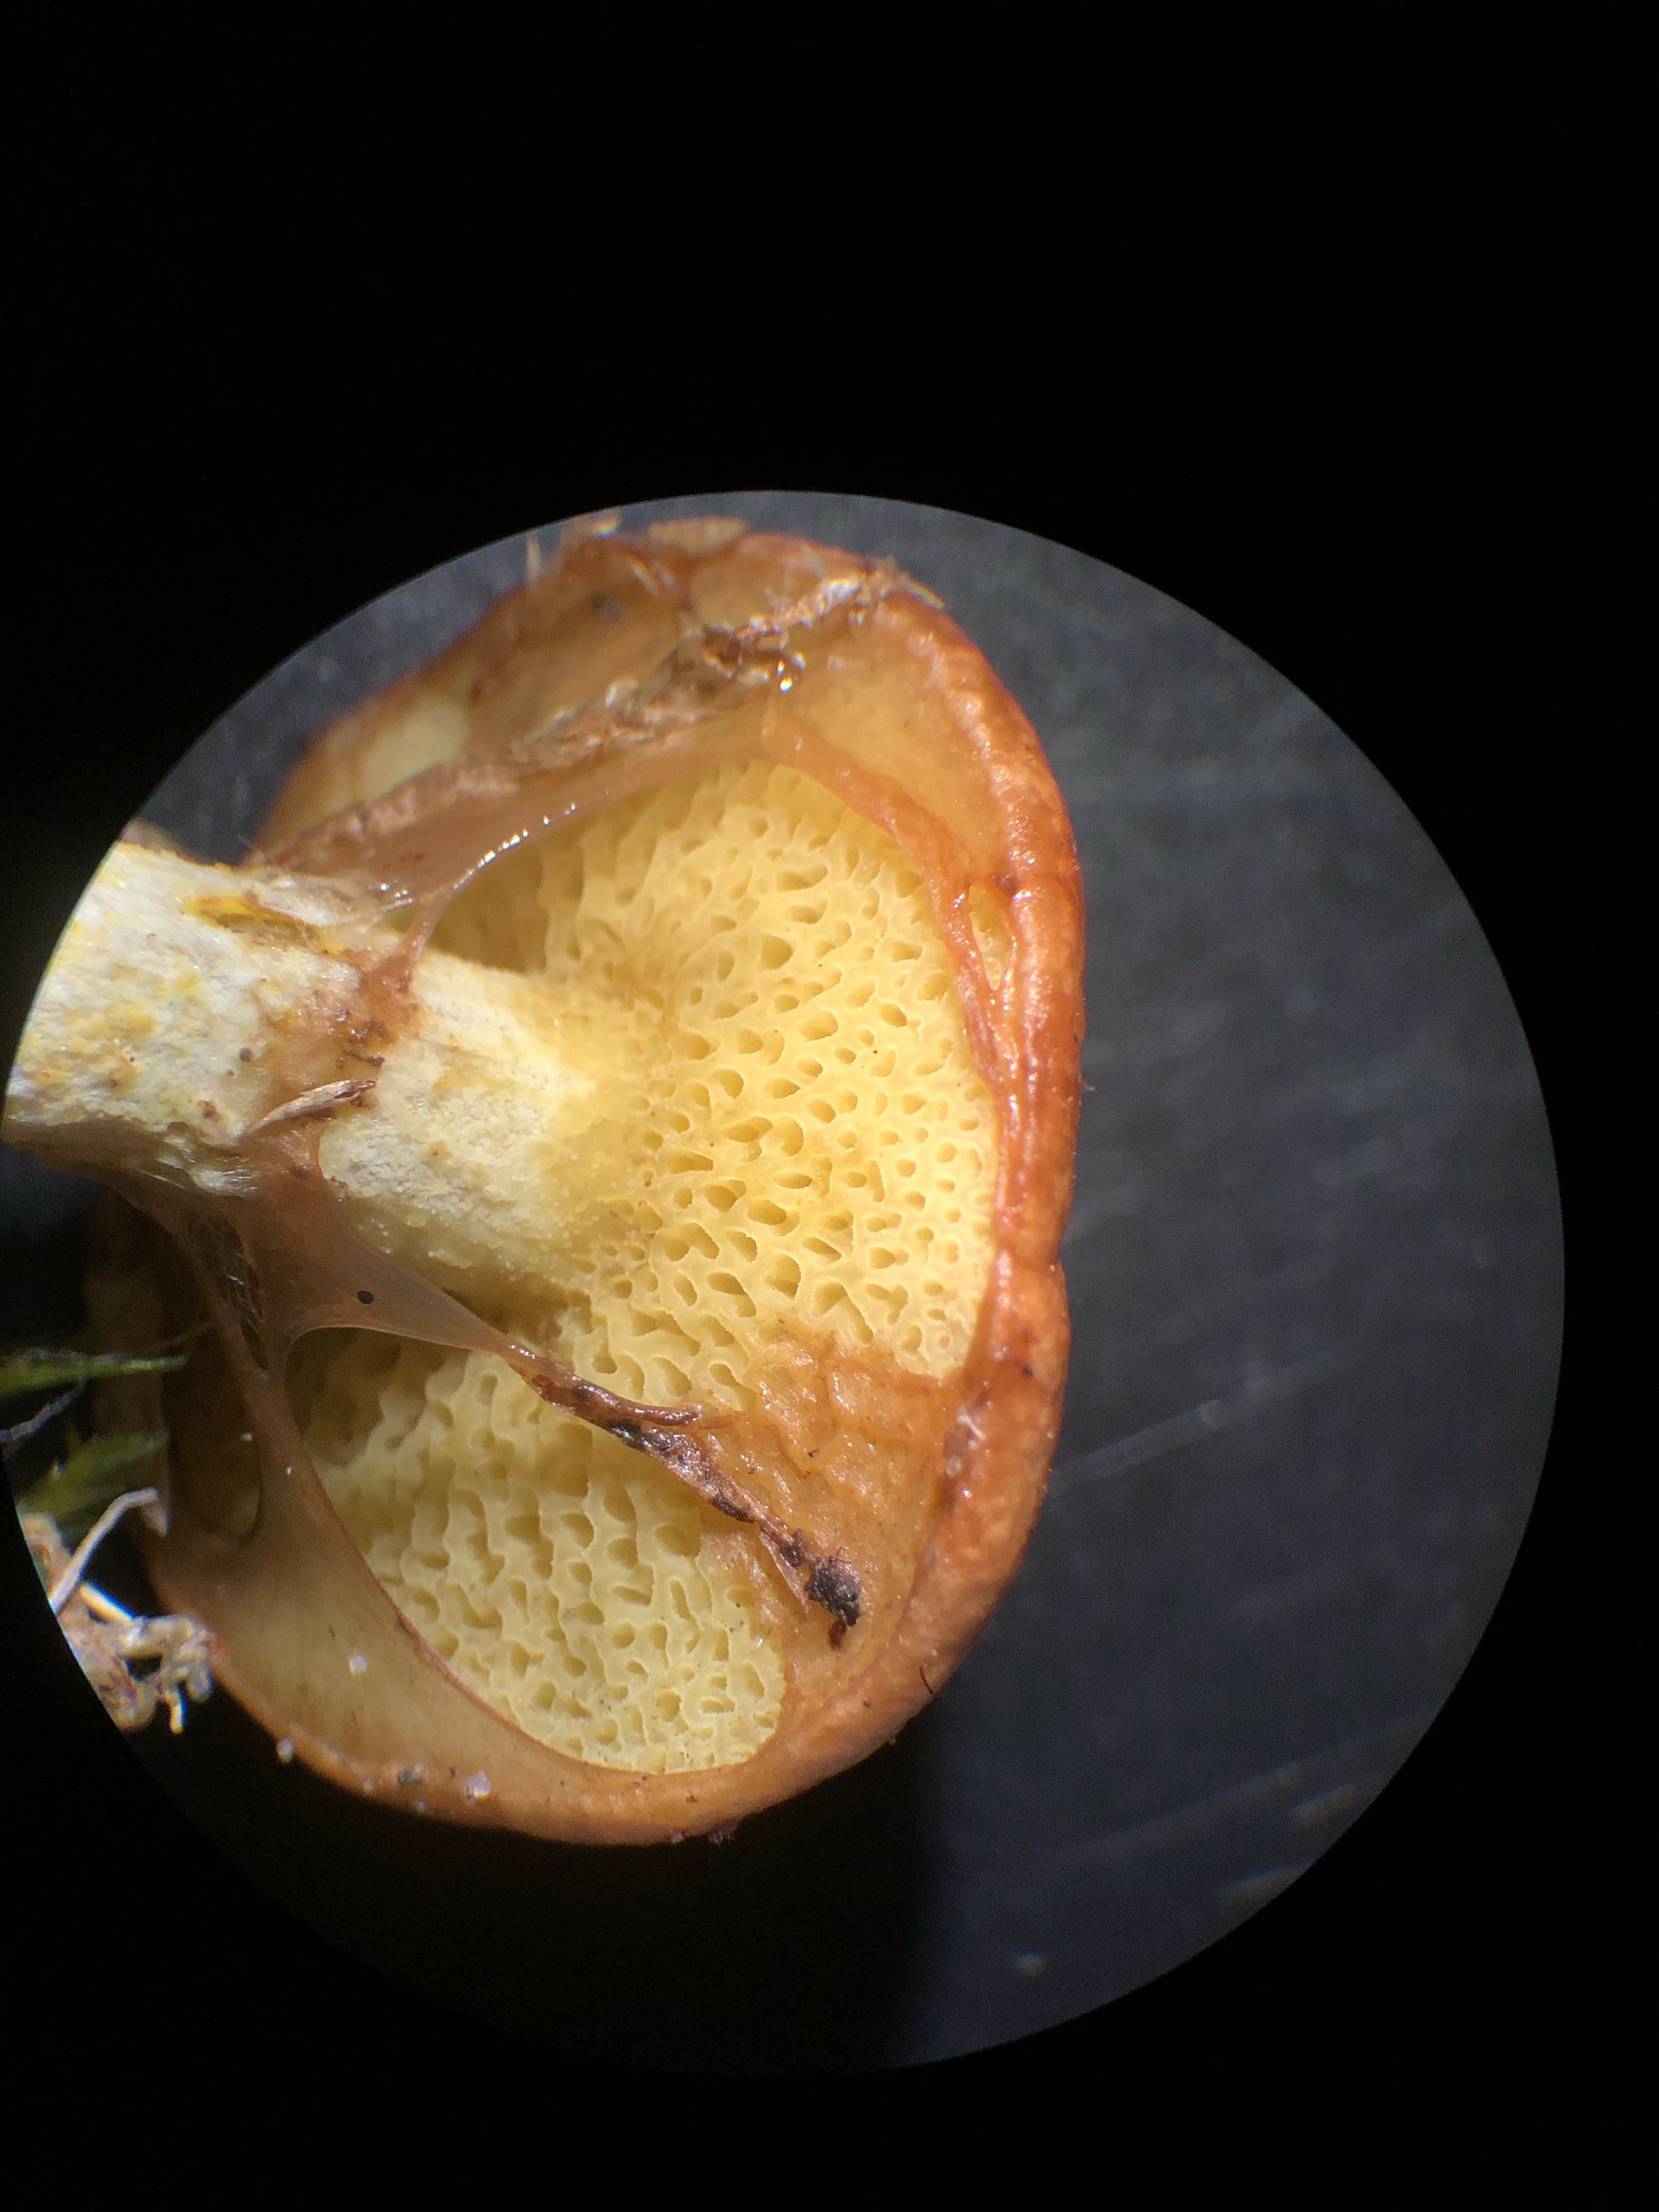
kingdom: Fungi
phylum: Basidiomycota
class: Agaricomycetes
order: Boletales
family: Suillaceae
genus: Suillus
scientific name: Suillus flavidus
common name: mose-slimrørhat
